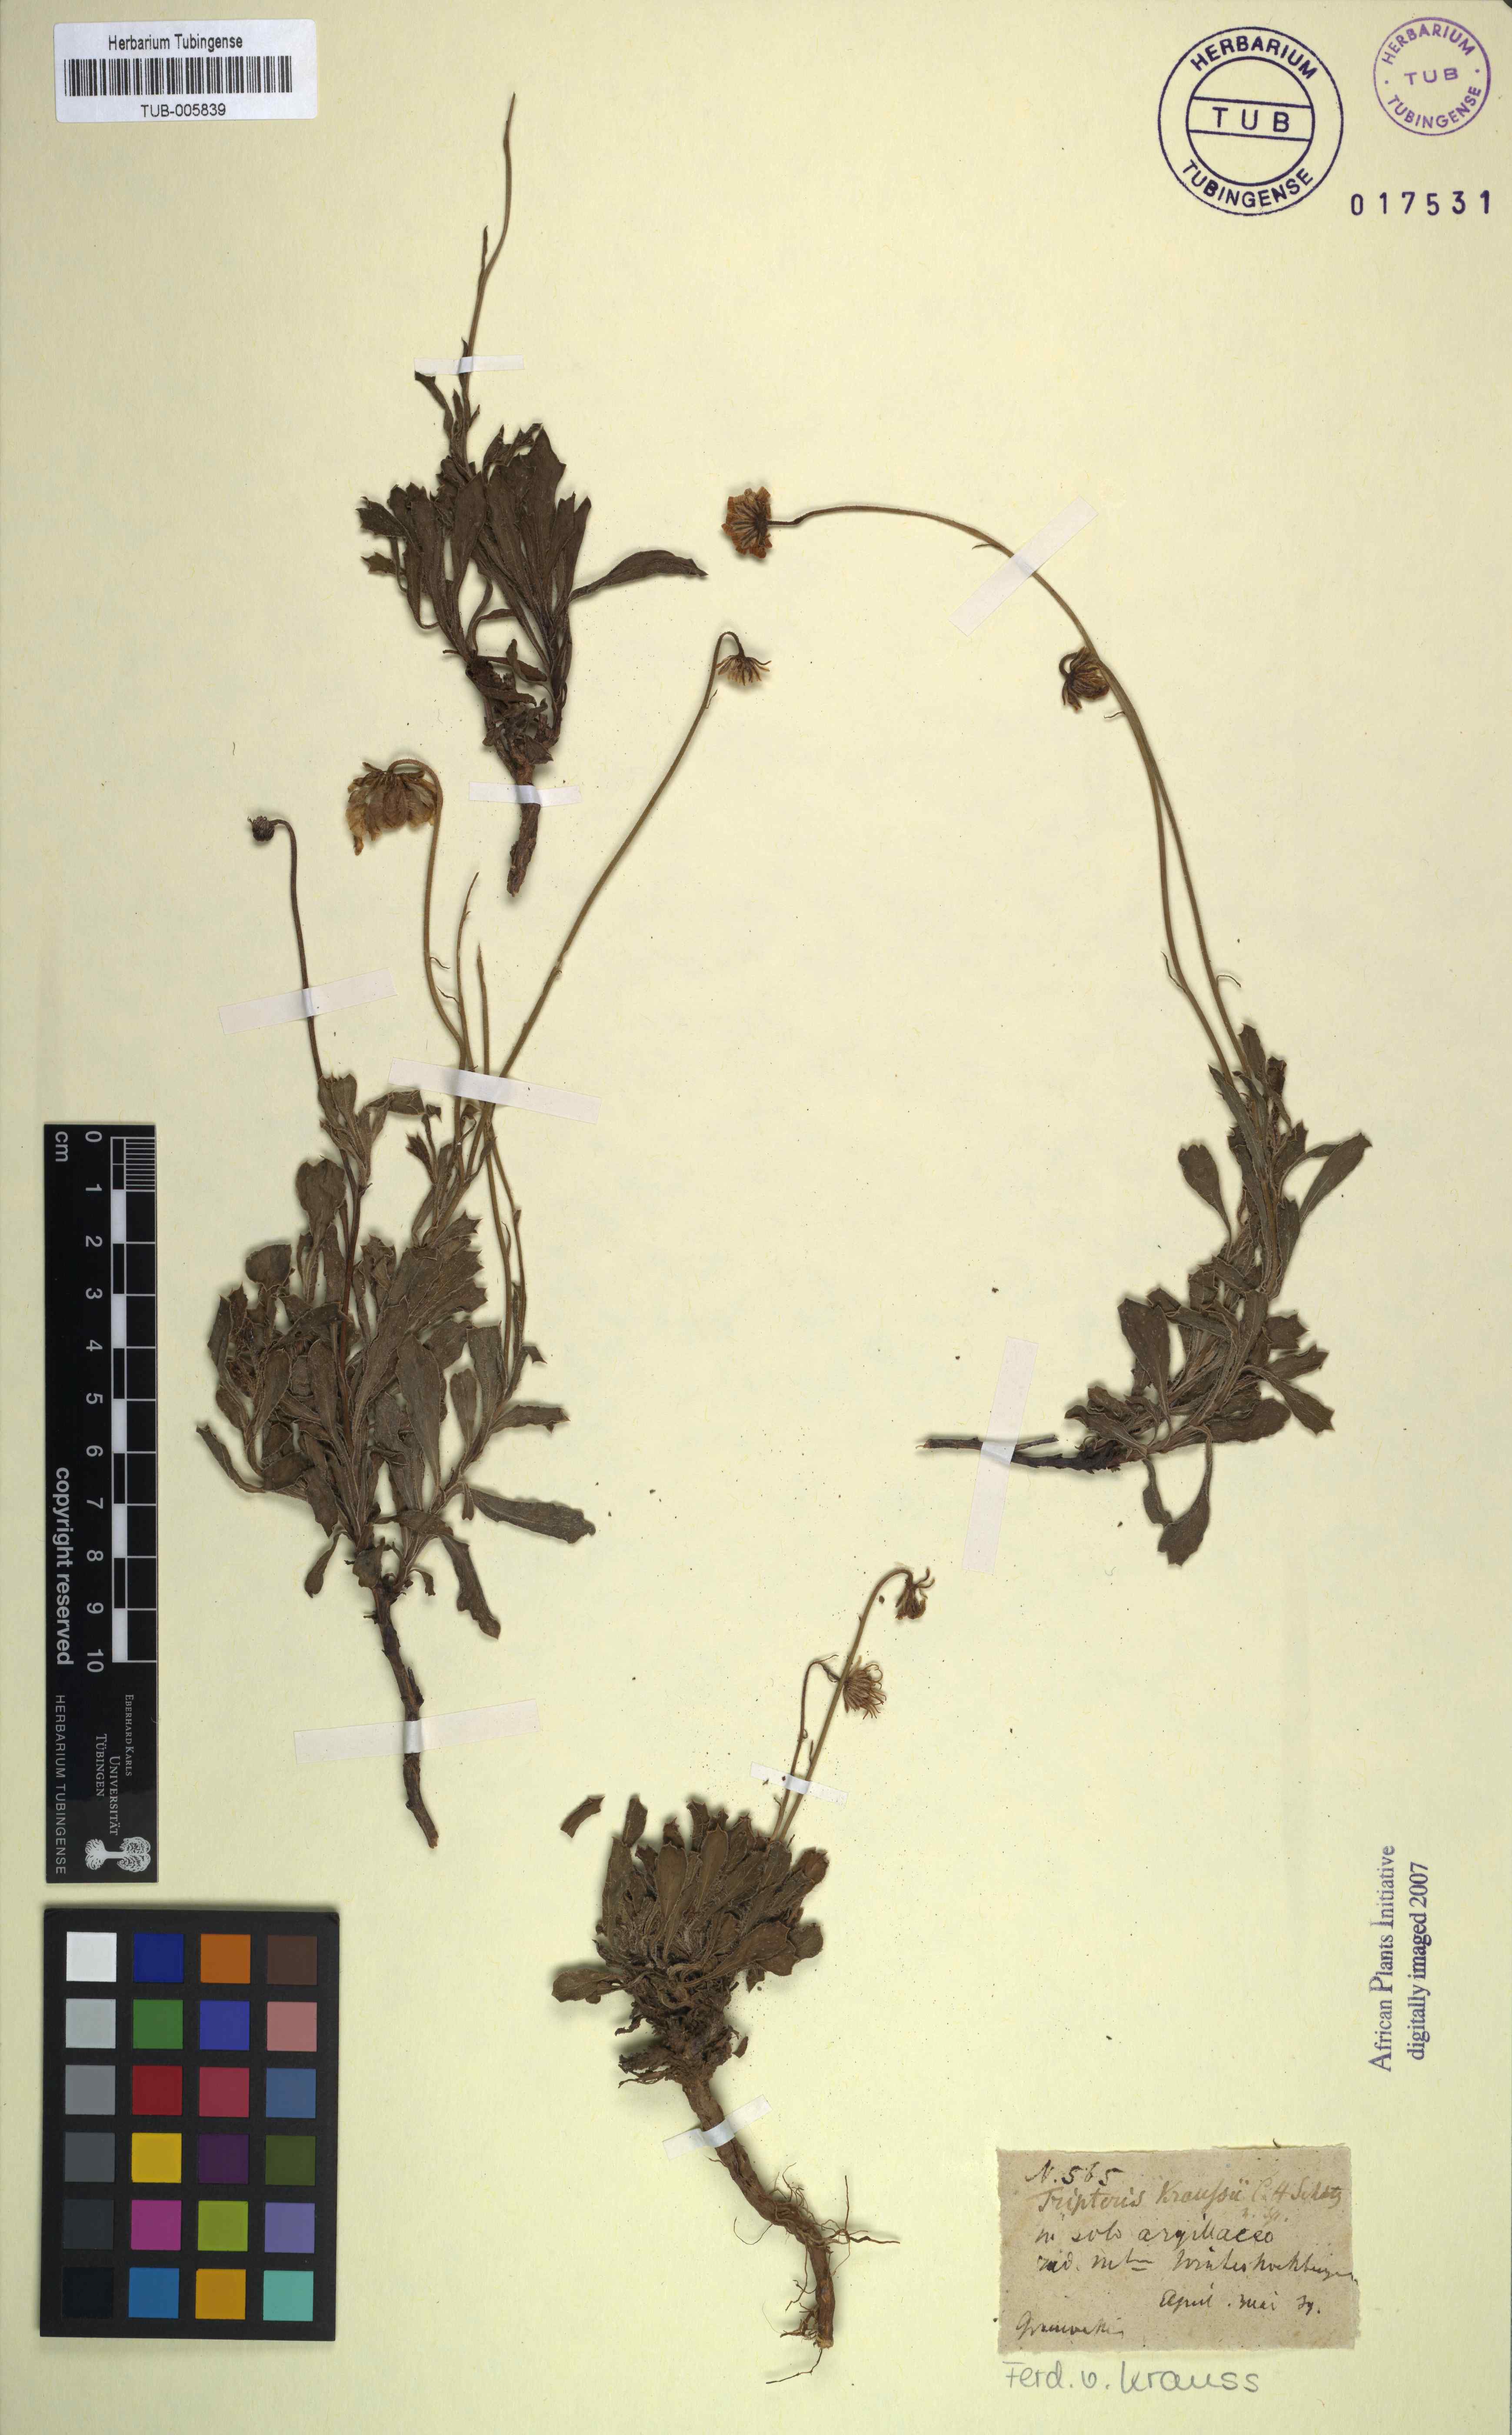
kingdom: Plantae
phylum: Tracheophyta
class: Magnoliopsida
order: Asterales
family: Asteraceae
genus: Osteospermum
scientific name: Osteospermum scariosum
